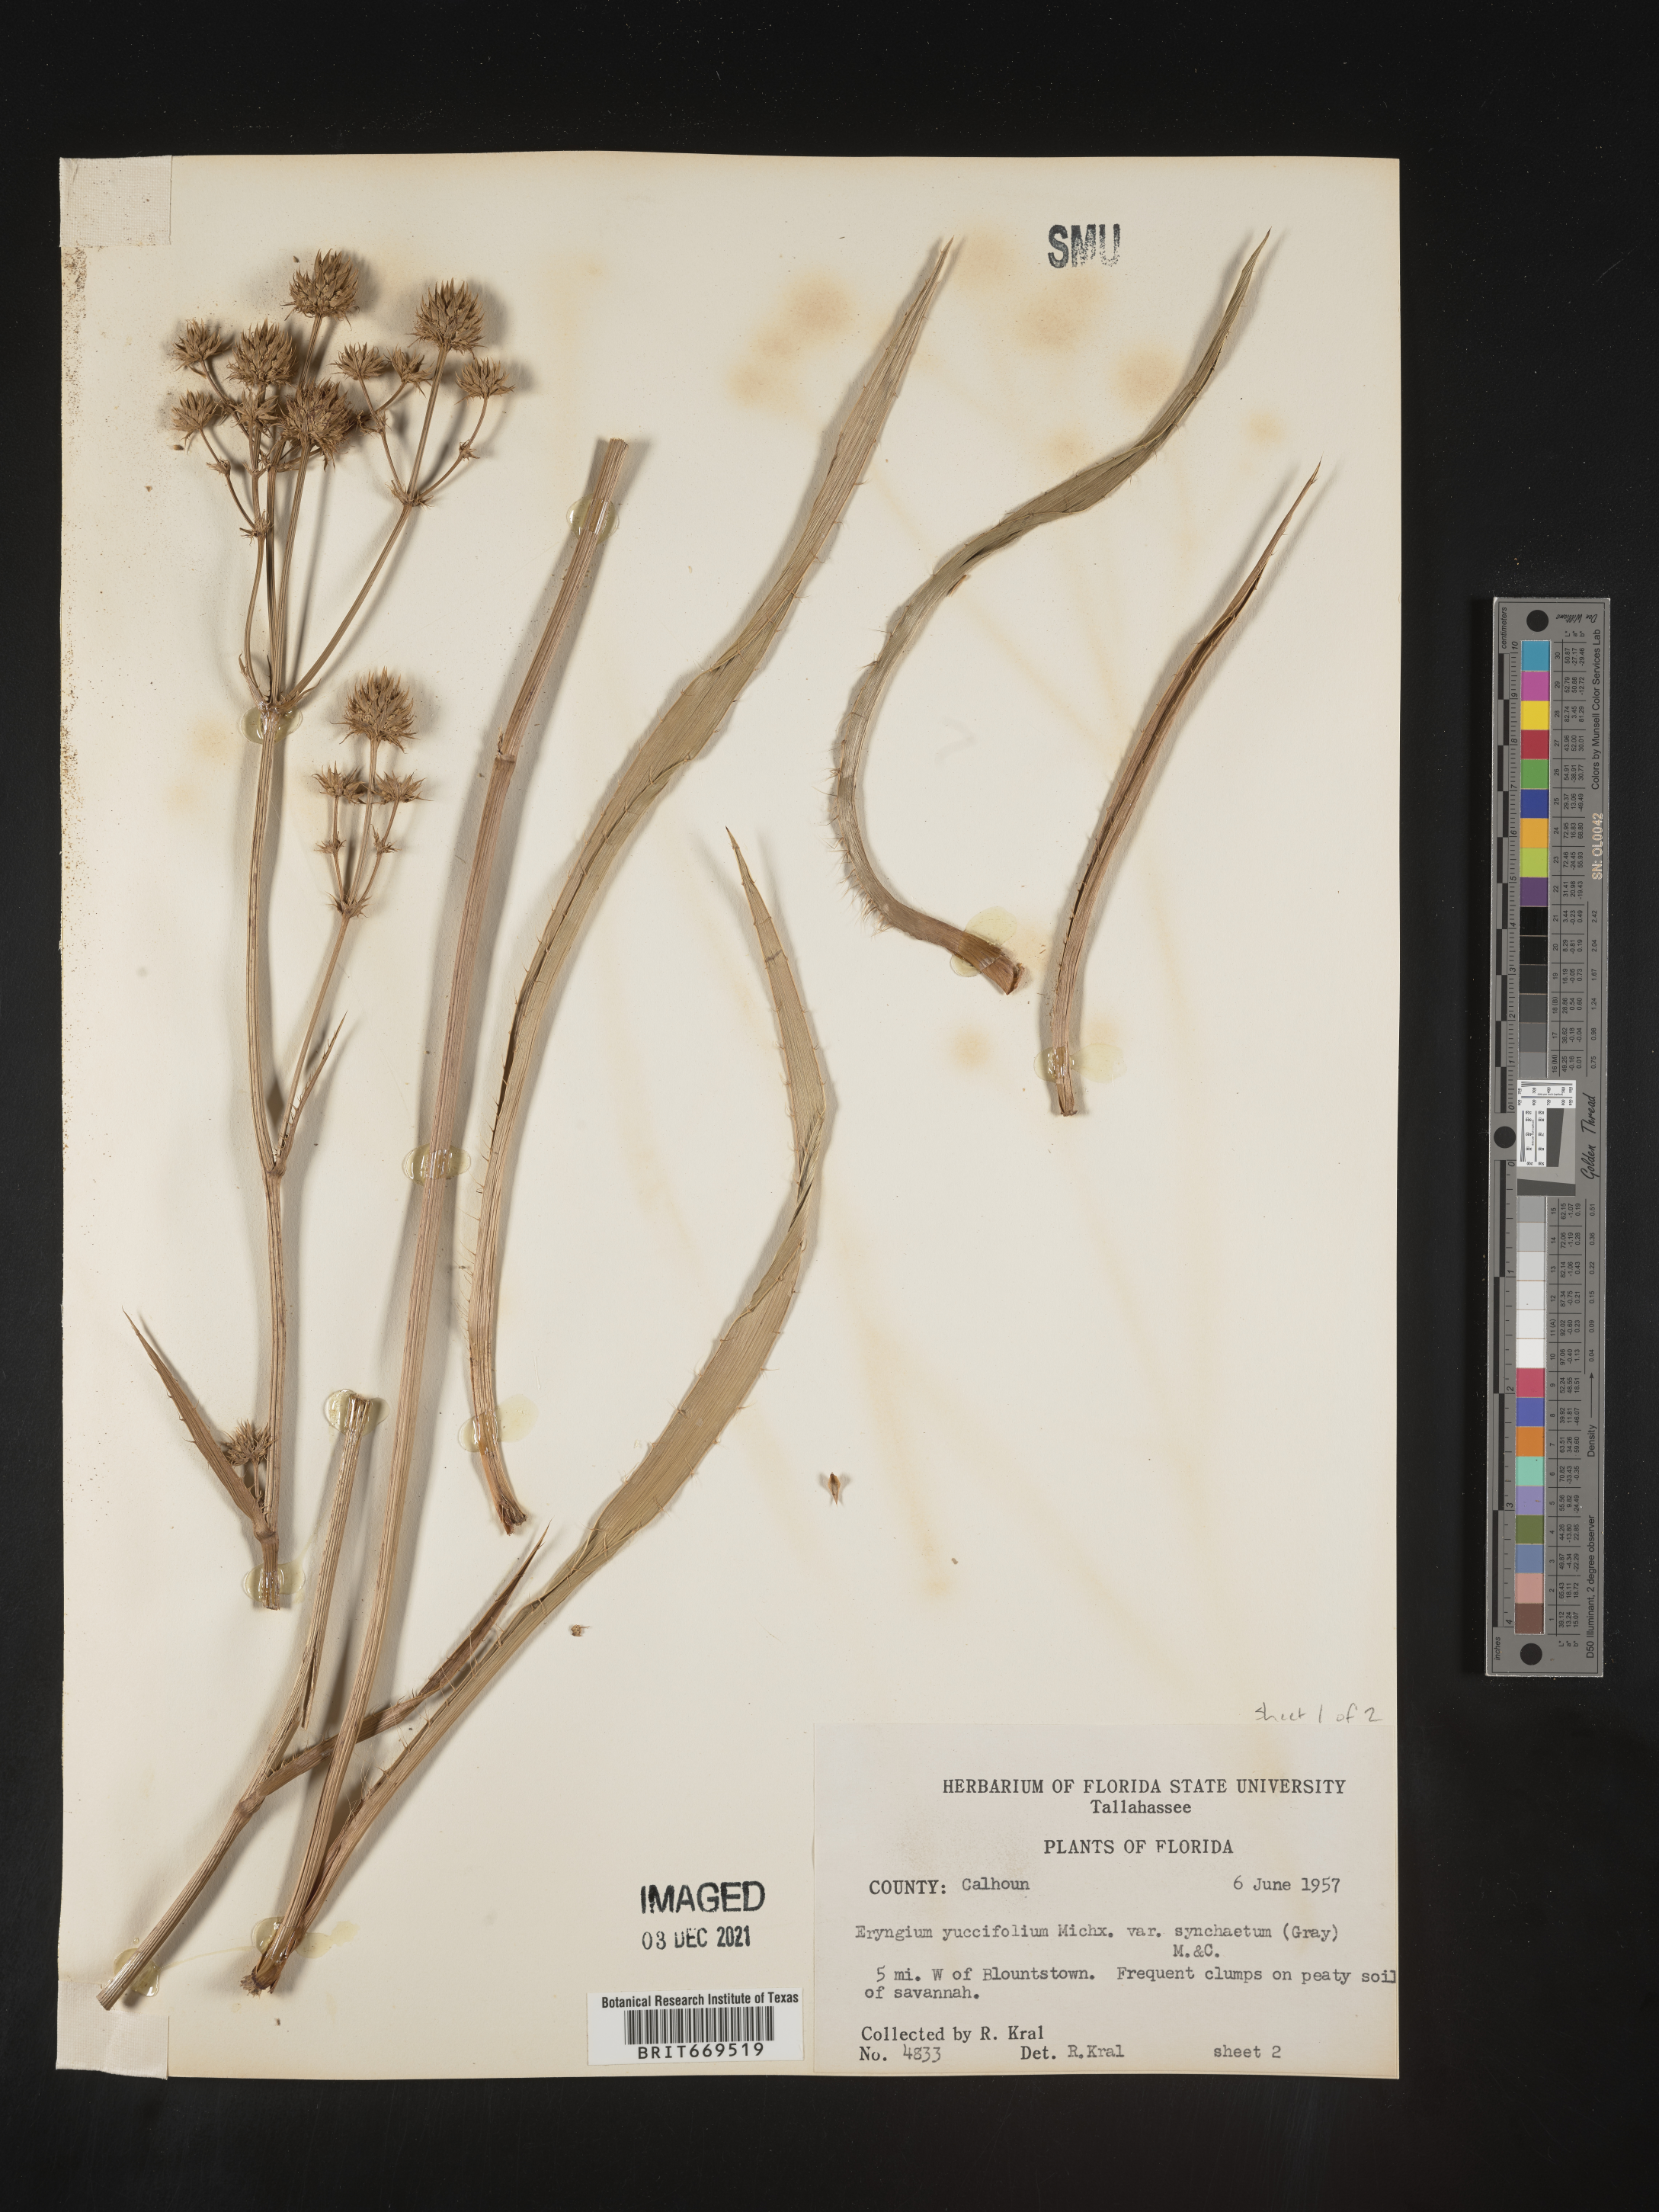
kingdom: Plantae
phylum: Tracheophyta
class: Magnoliopsida
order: Apiales
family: Apiaceae
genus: Eryngium
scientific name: Eryngium yuccifolium
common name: Button eryngo
